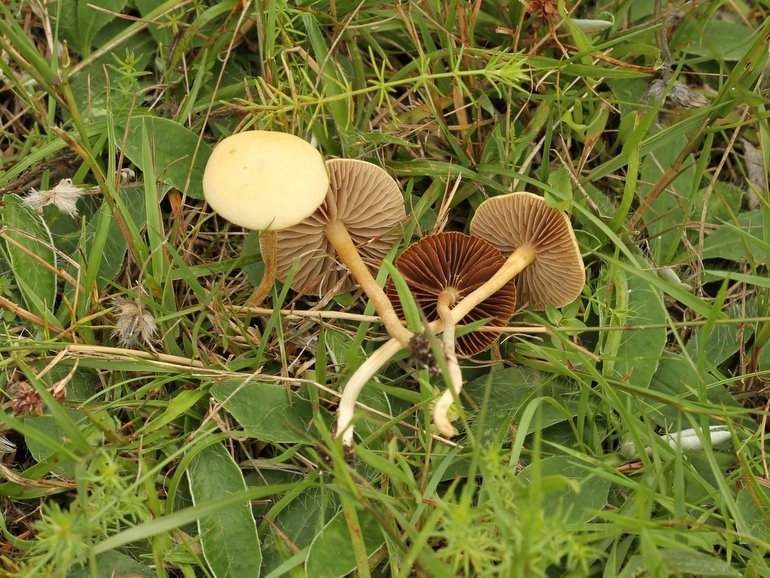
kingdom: Fungi
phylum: Basidiomycota
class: Agaricomycetes
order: Agaricales
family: Strophariaceae
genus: Agrocybe
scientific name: Agrocybe pediades
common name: almindelig agerhat
